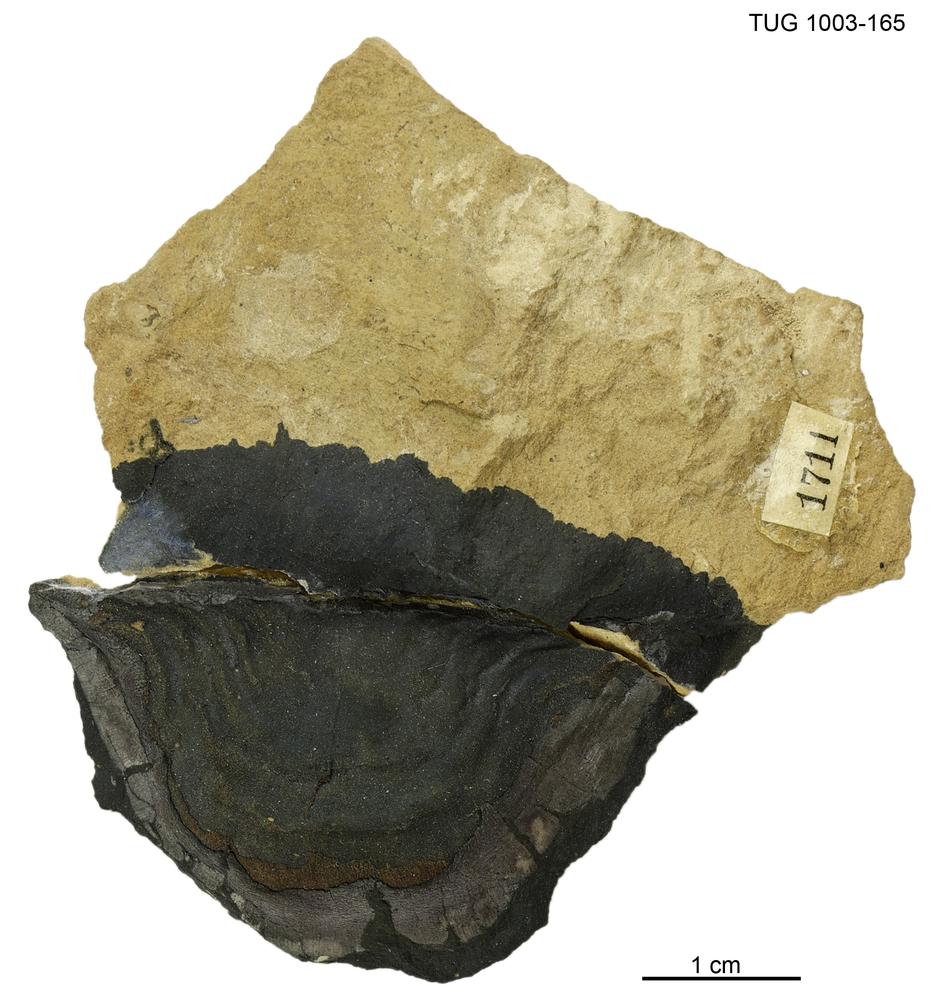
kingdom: Animalia
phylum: Brachiopoda
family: Strophomenidae
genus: Leptaena
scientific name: Leptaena
